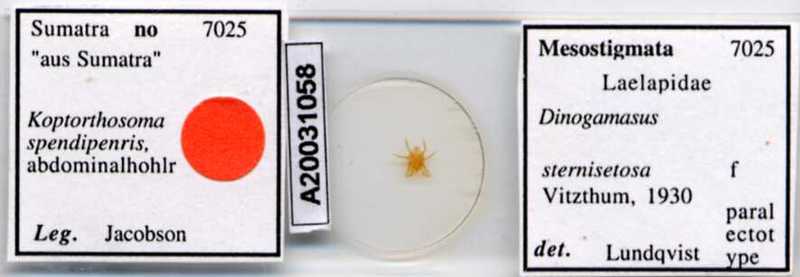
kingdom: Animalia
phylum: Arthropoda
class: Arachnida
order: Mesostigmata
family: Laelapidae
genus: Dinogamasus
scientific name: Dinogamasus
